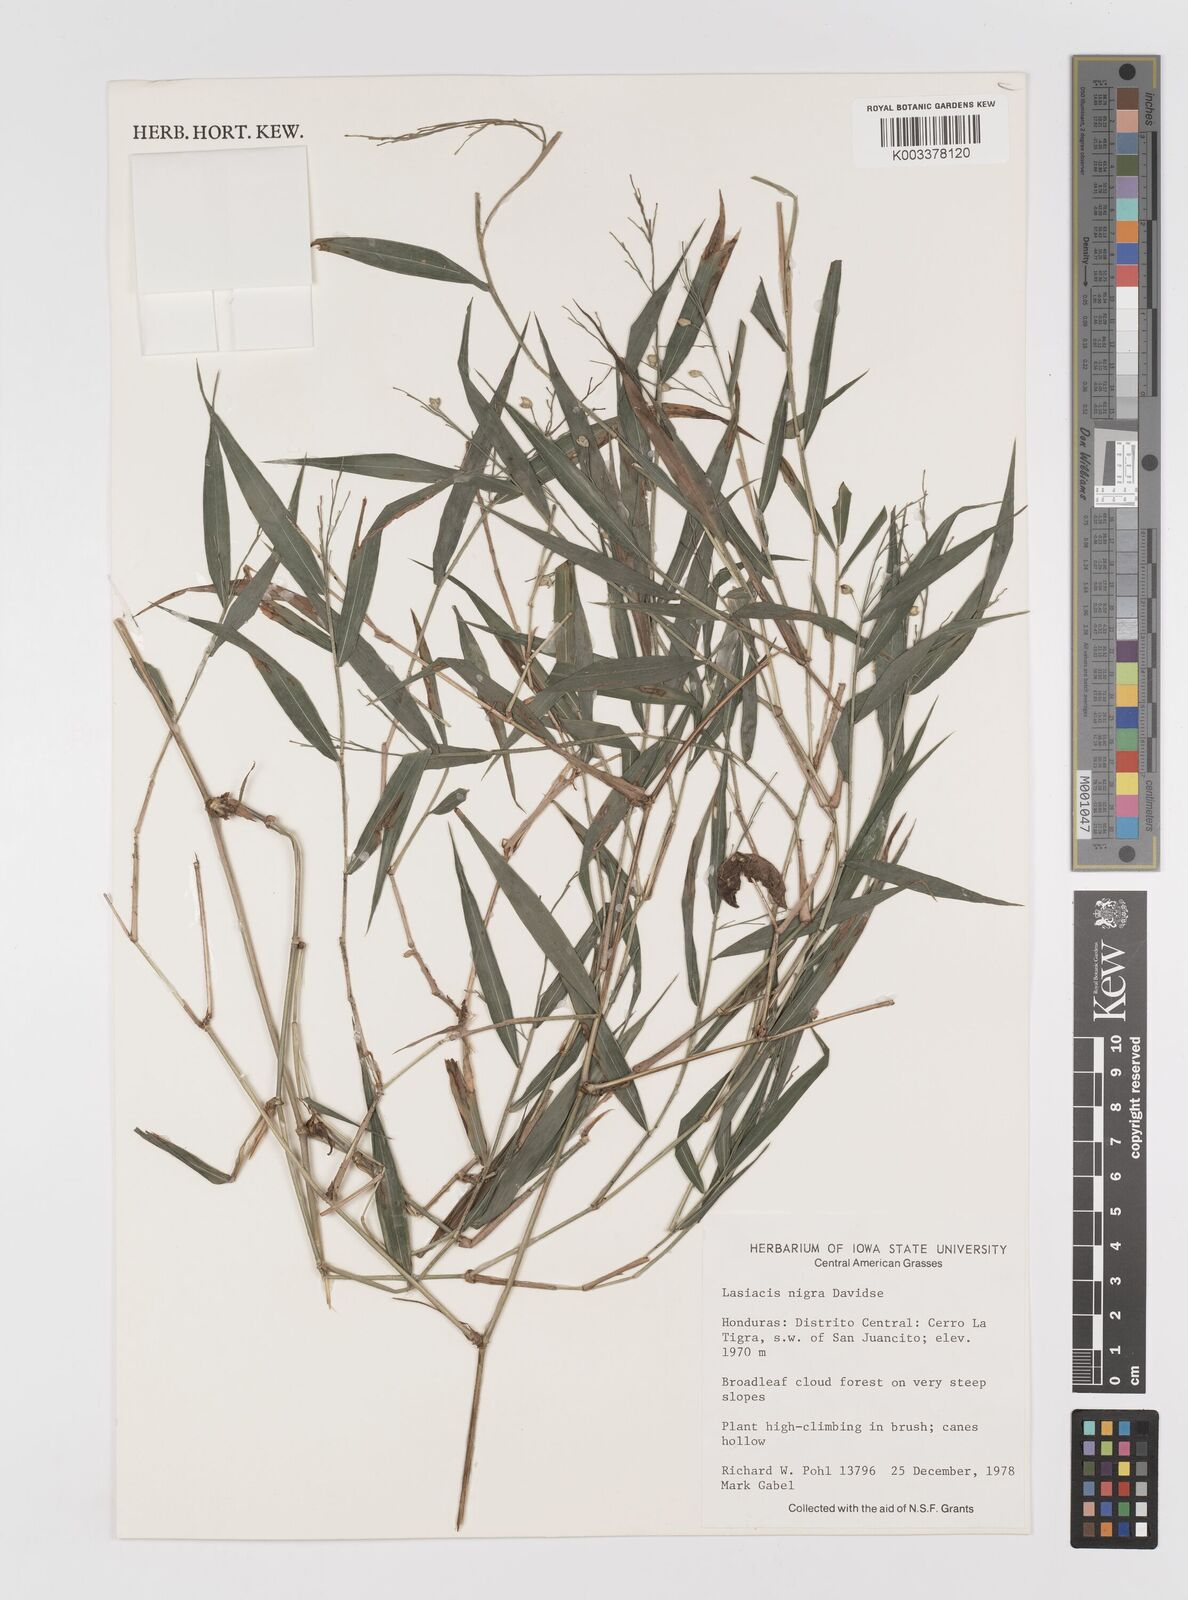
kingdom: Plantae
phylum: Tracheophyta
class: Liliopsida
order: Poales
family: Poaceae
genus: Lasiacis
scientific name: Lasiacis nigra
